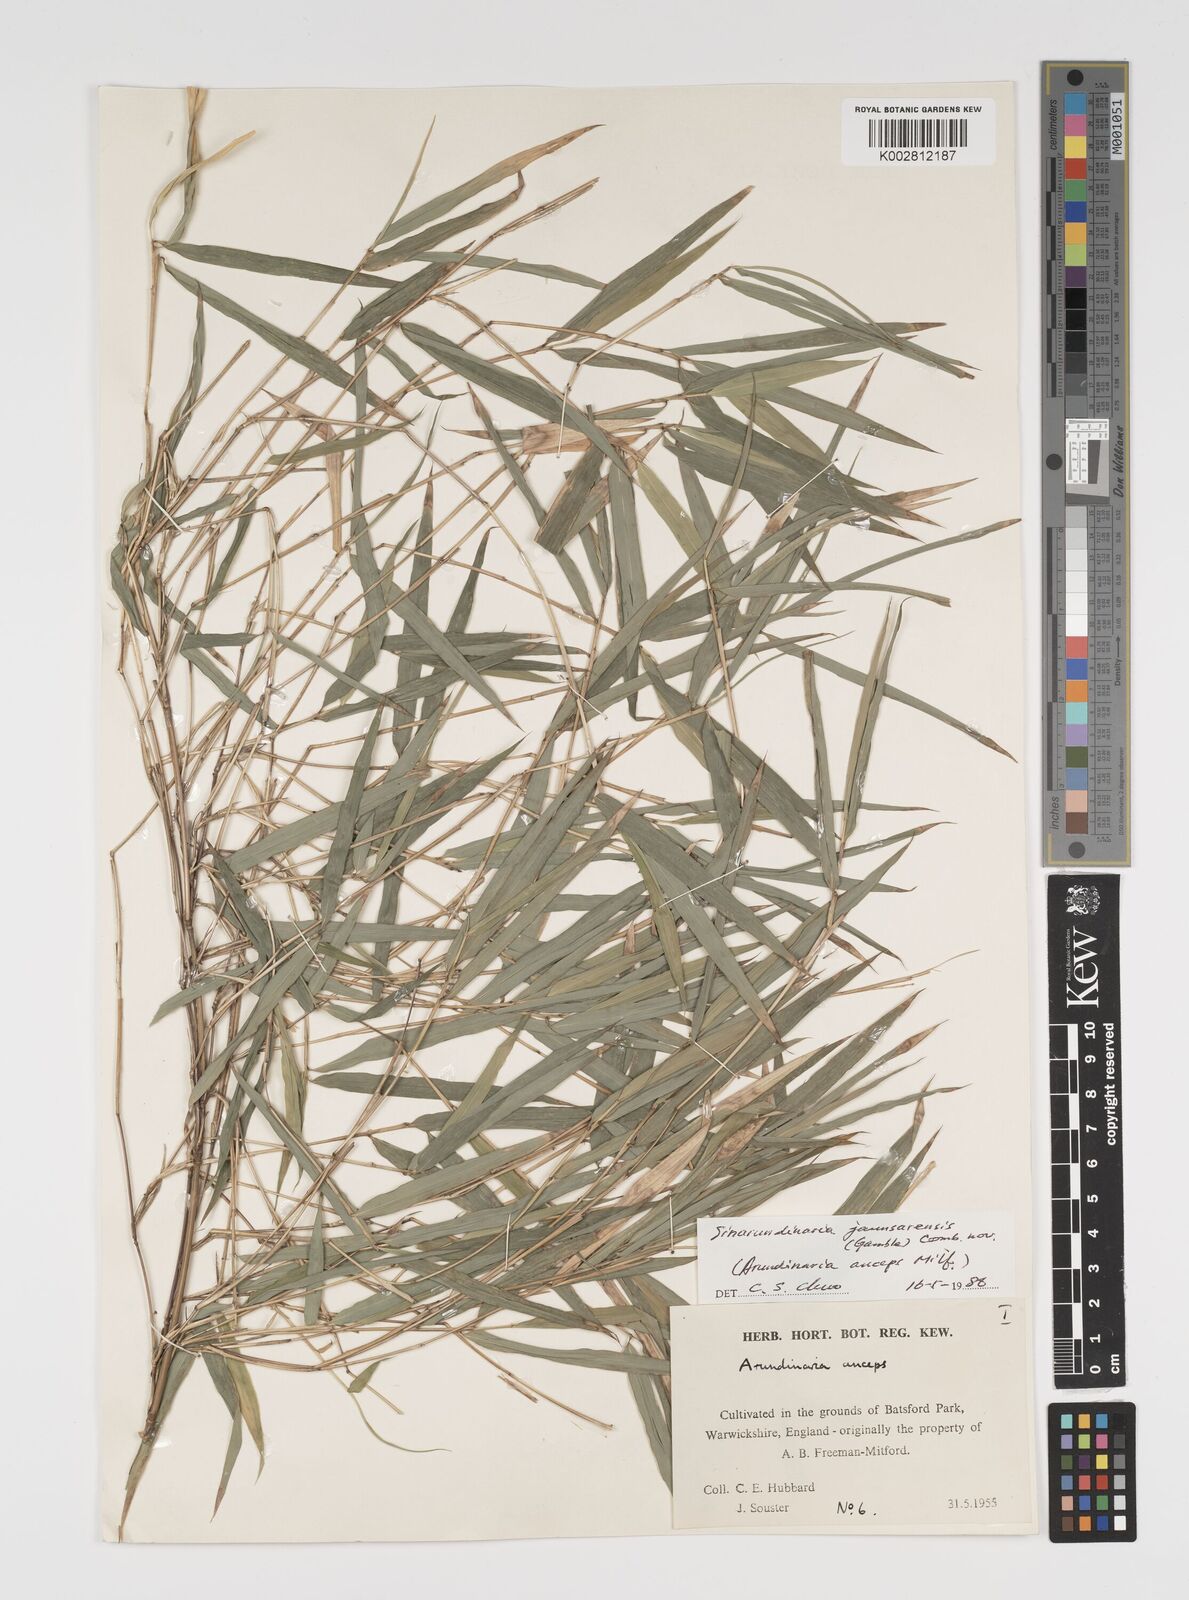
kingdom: Plantae
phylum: Tracheophyta
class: Liliopsida
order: Poales
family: Poaceae
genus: Yushania
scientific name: Yushania anceps
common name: Indian fountain-bamboo
